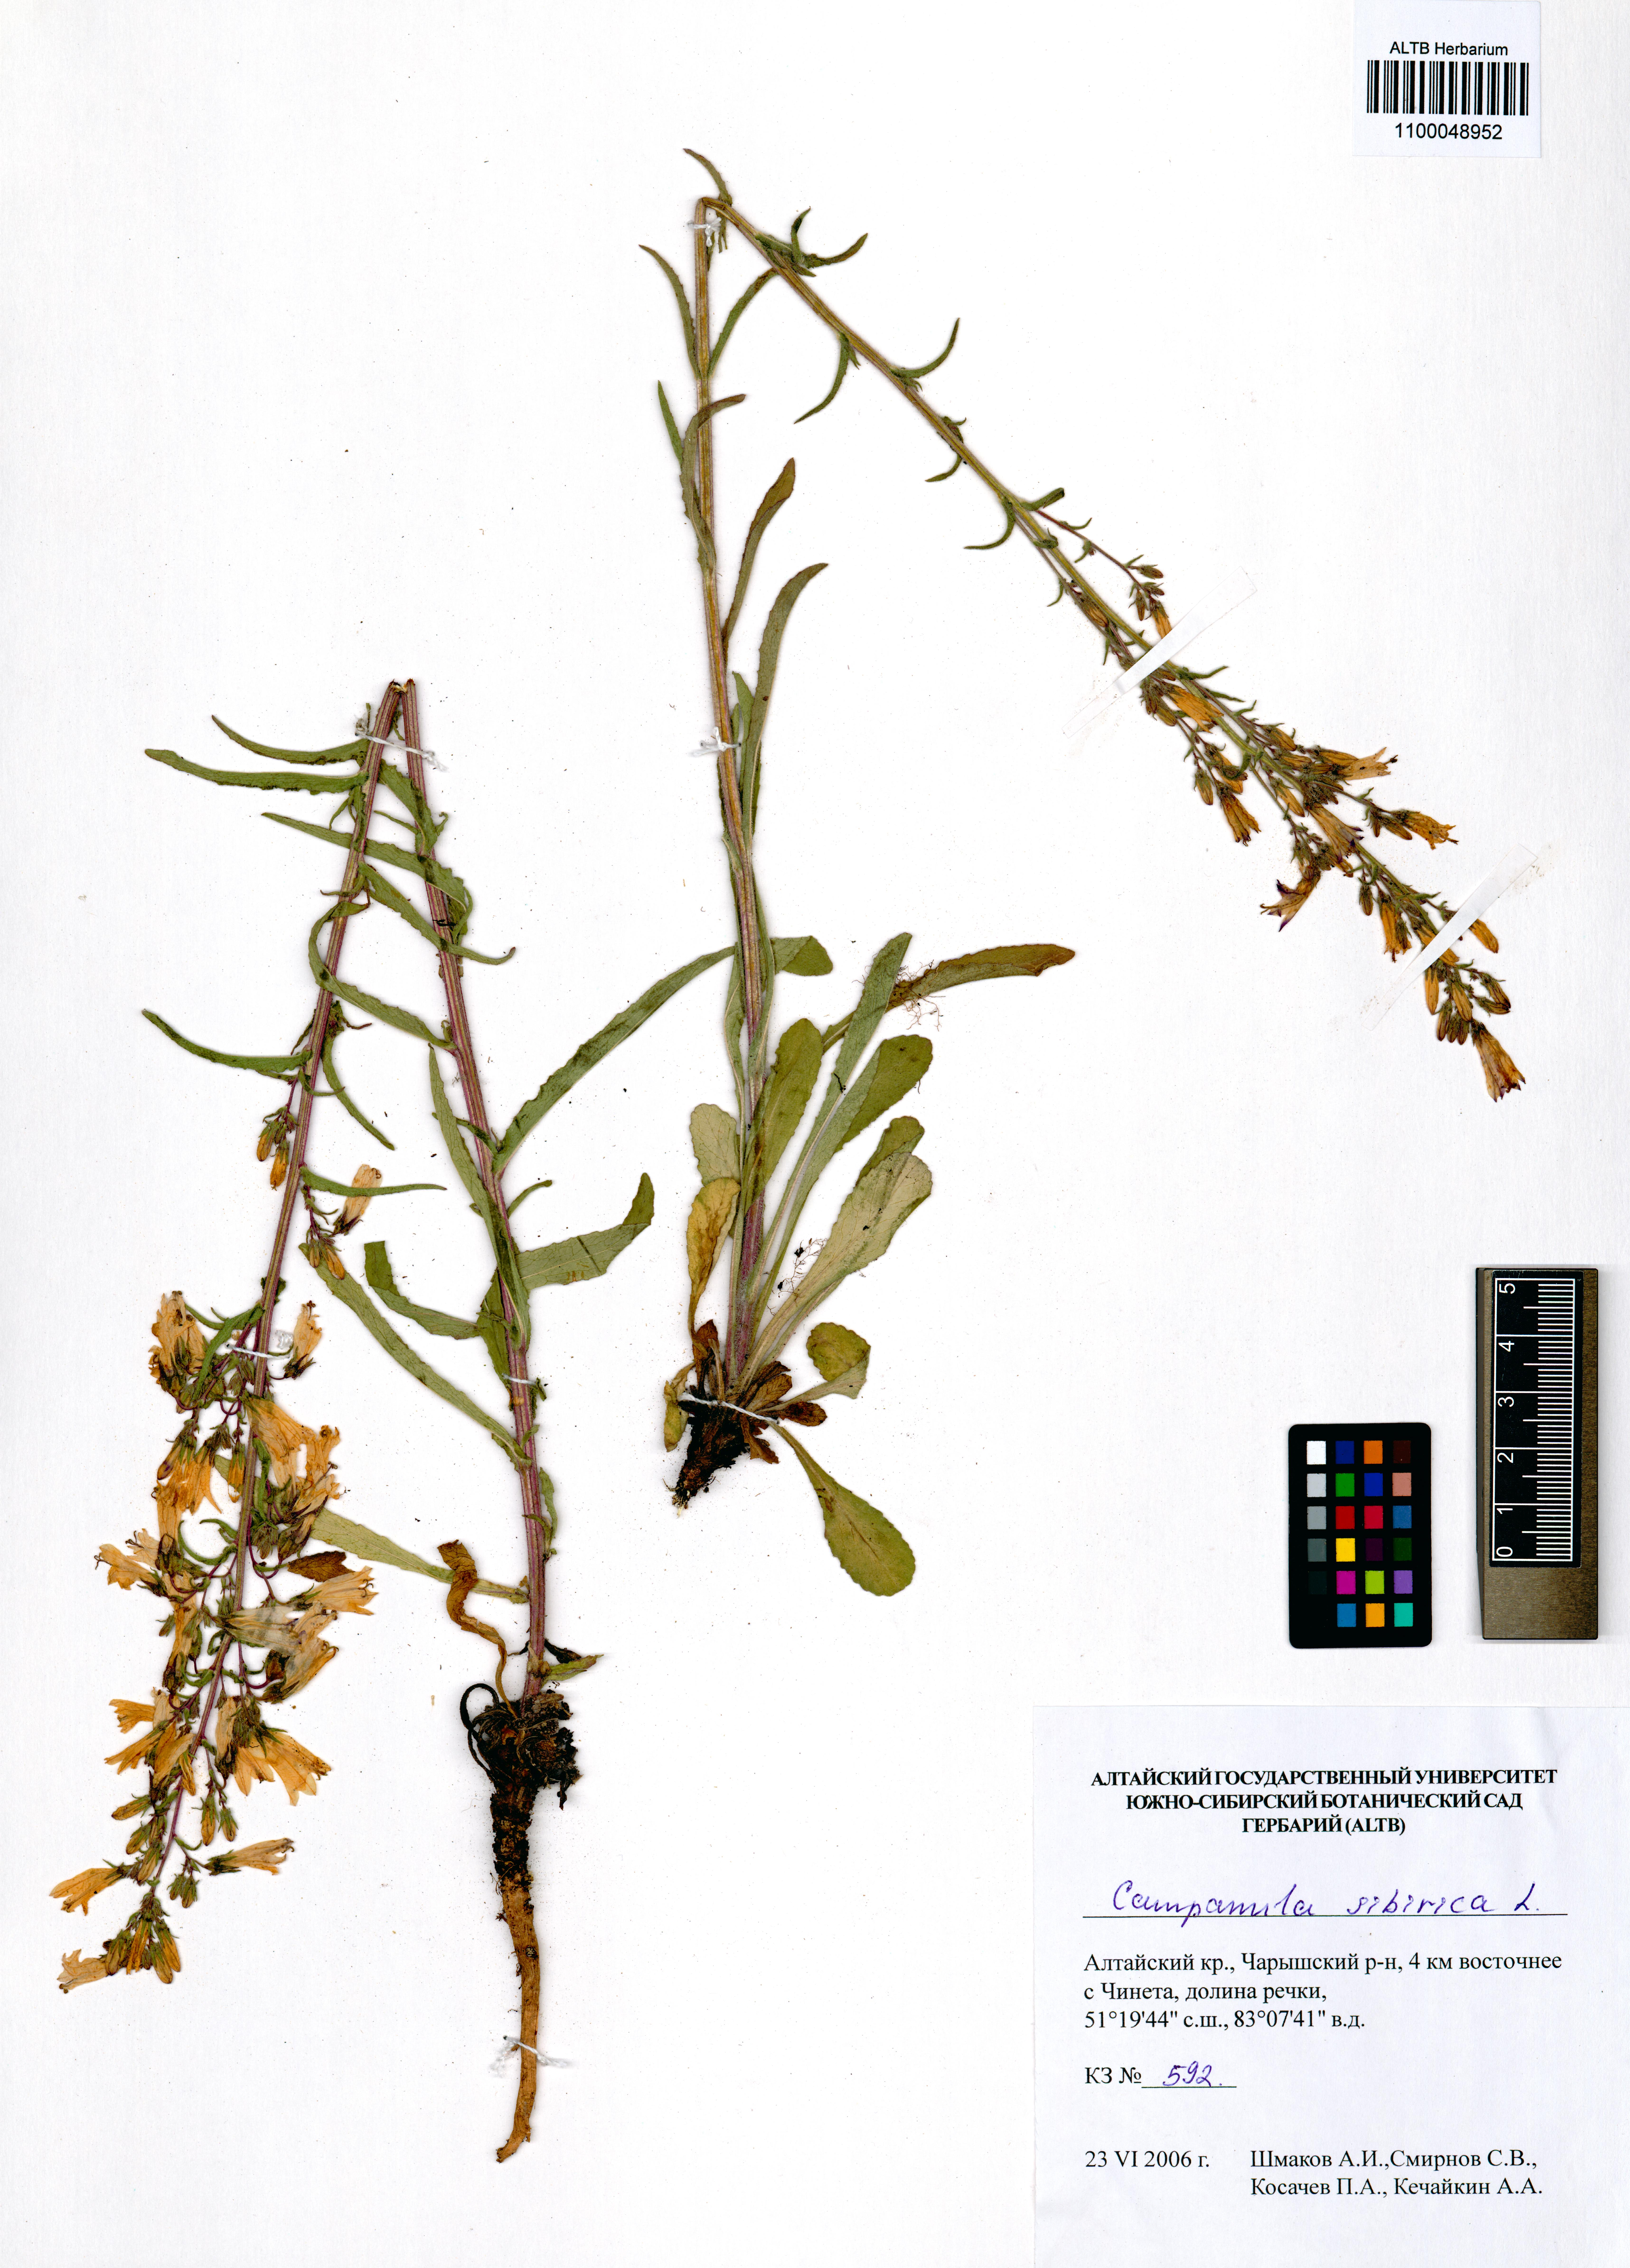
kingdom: Plantae
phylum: Tracheophyta
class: Magnoliopsida
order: Asterales
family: Campanulaceae
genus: Campanula
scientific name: Campanula sibirica
